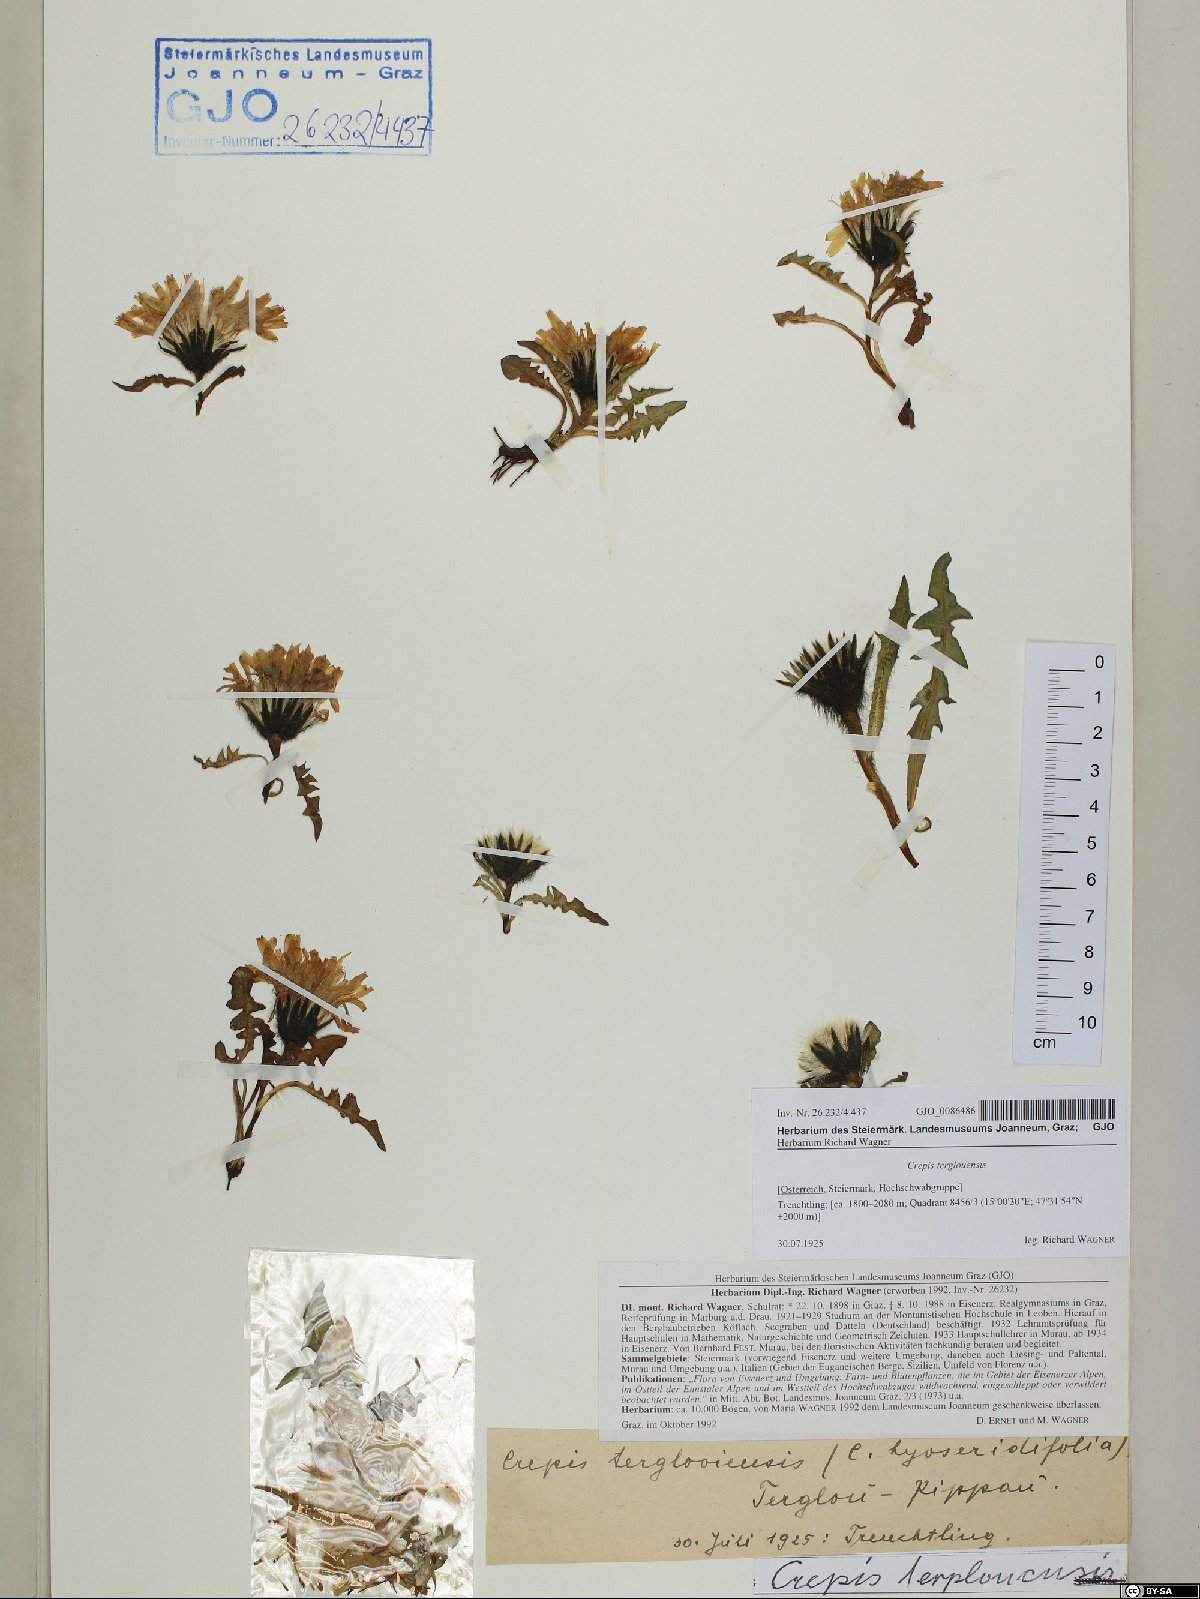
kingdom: Plantae
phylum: Tracheophyta
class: Magnoliopsida
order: Asterales
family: Asteraceae
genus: Crepis
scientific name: Crepis terglouensis
